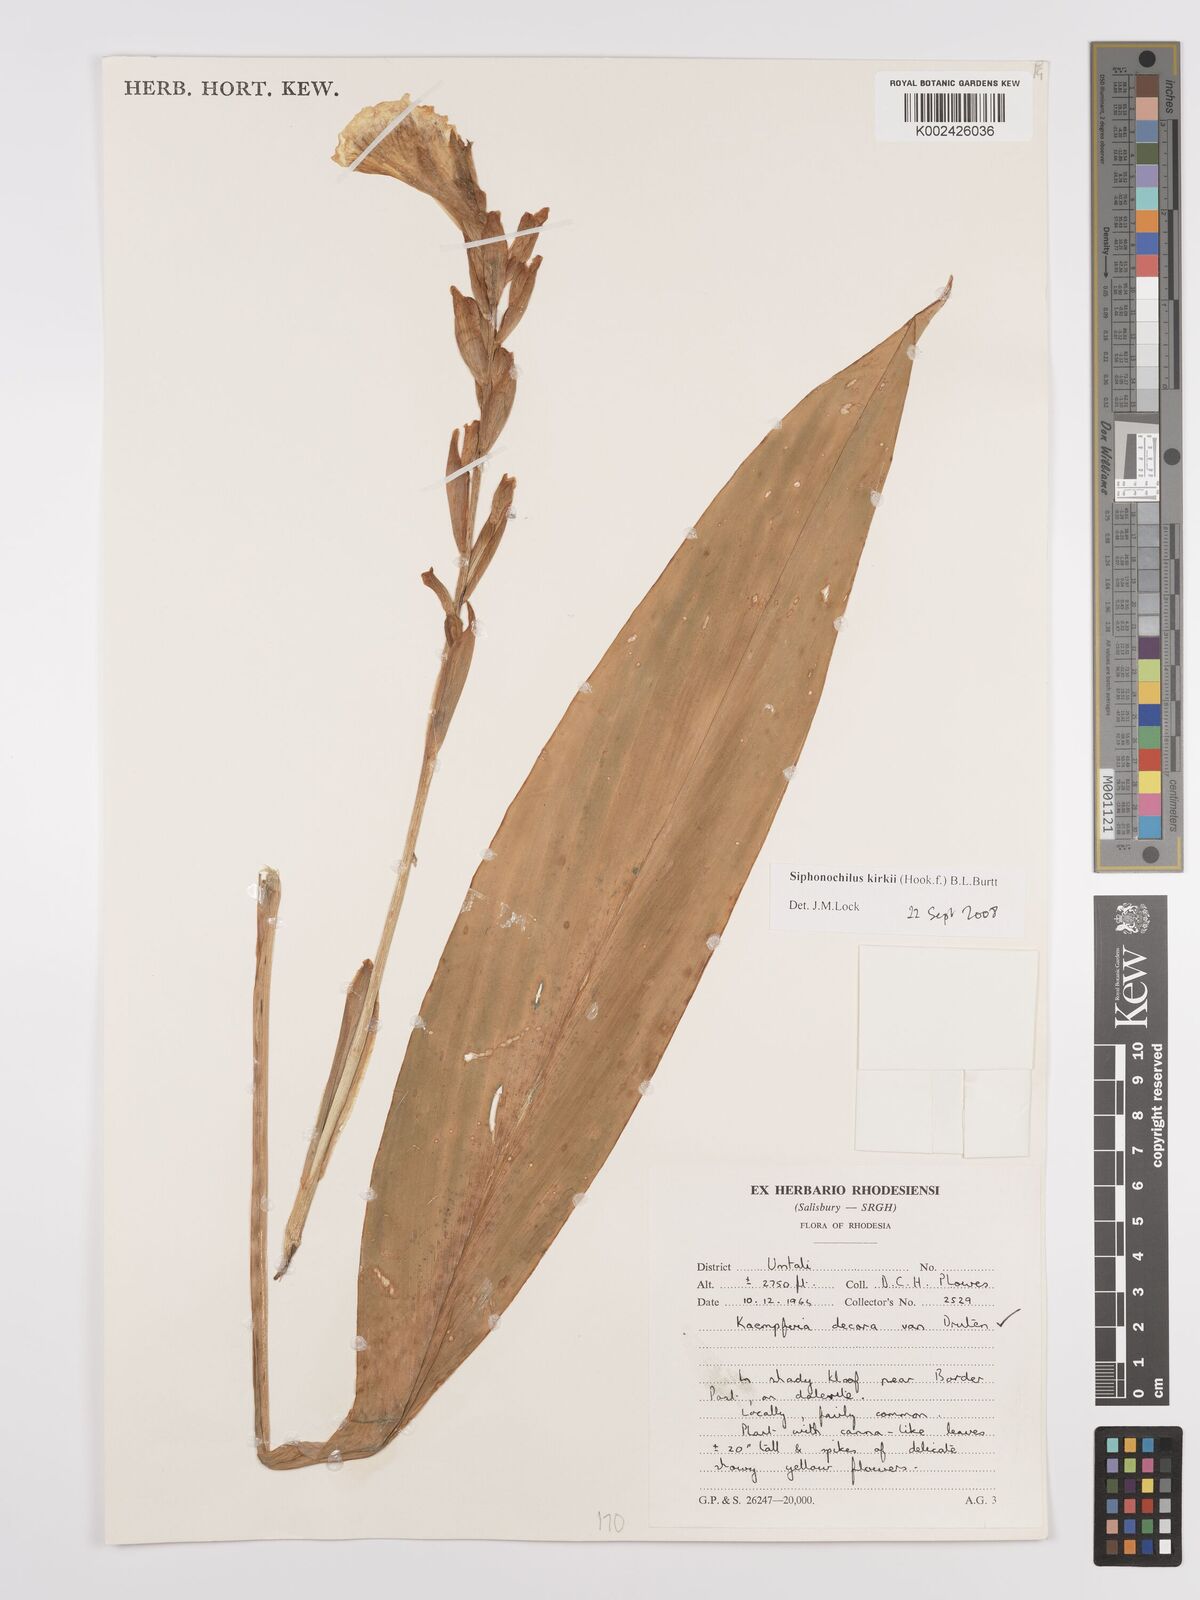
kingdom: Plantae
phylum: Tracheophyta
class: Liliopsida
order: Zingiberales
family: Zingiberaceae
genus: Siphonochilus
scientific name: Siphonochilus kirkii
